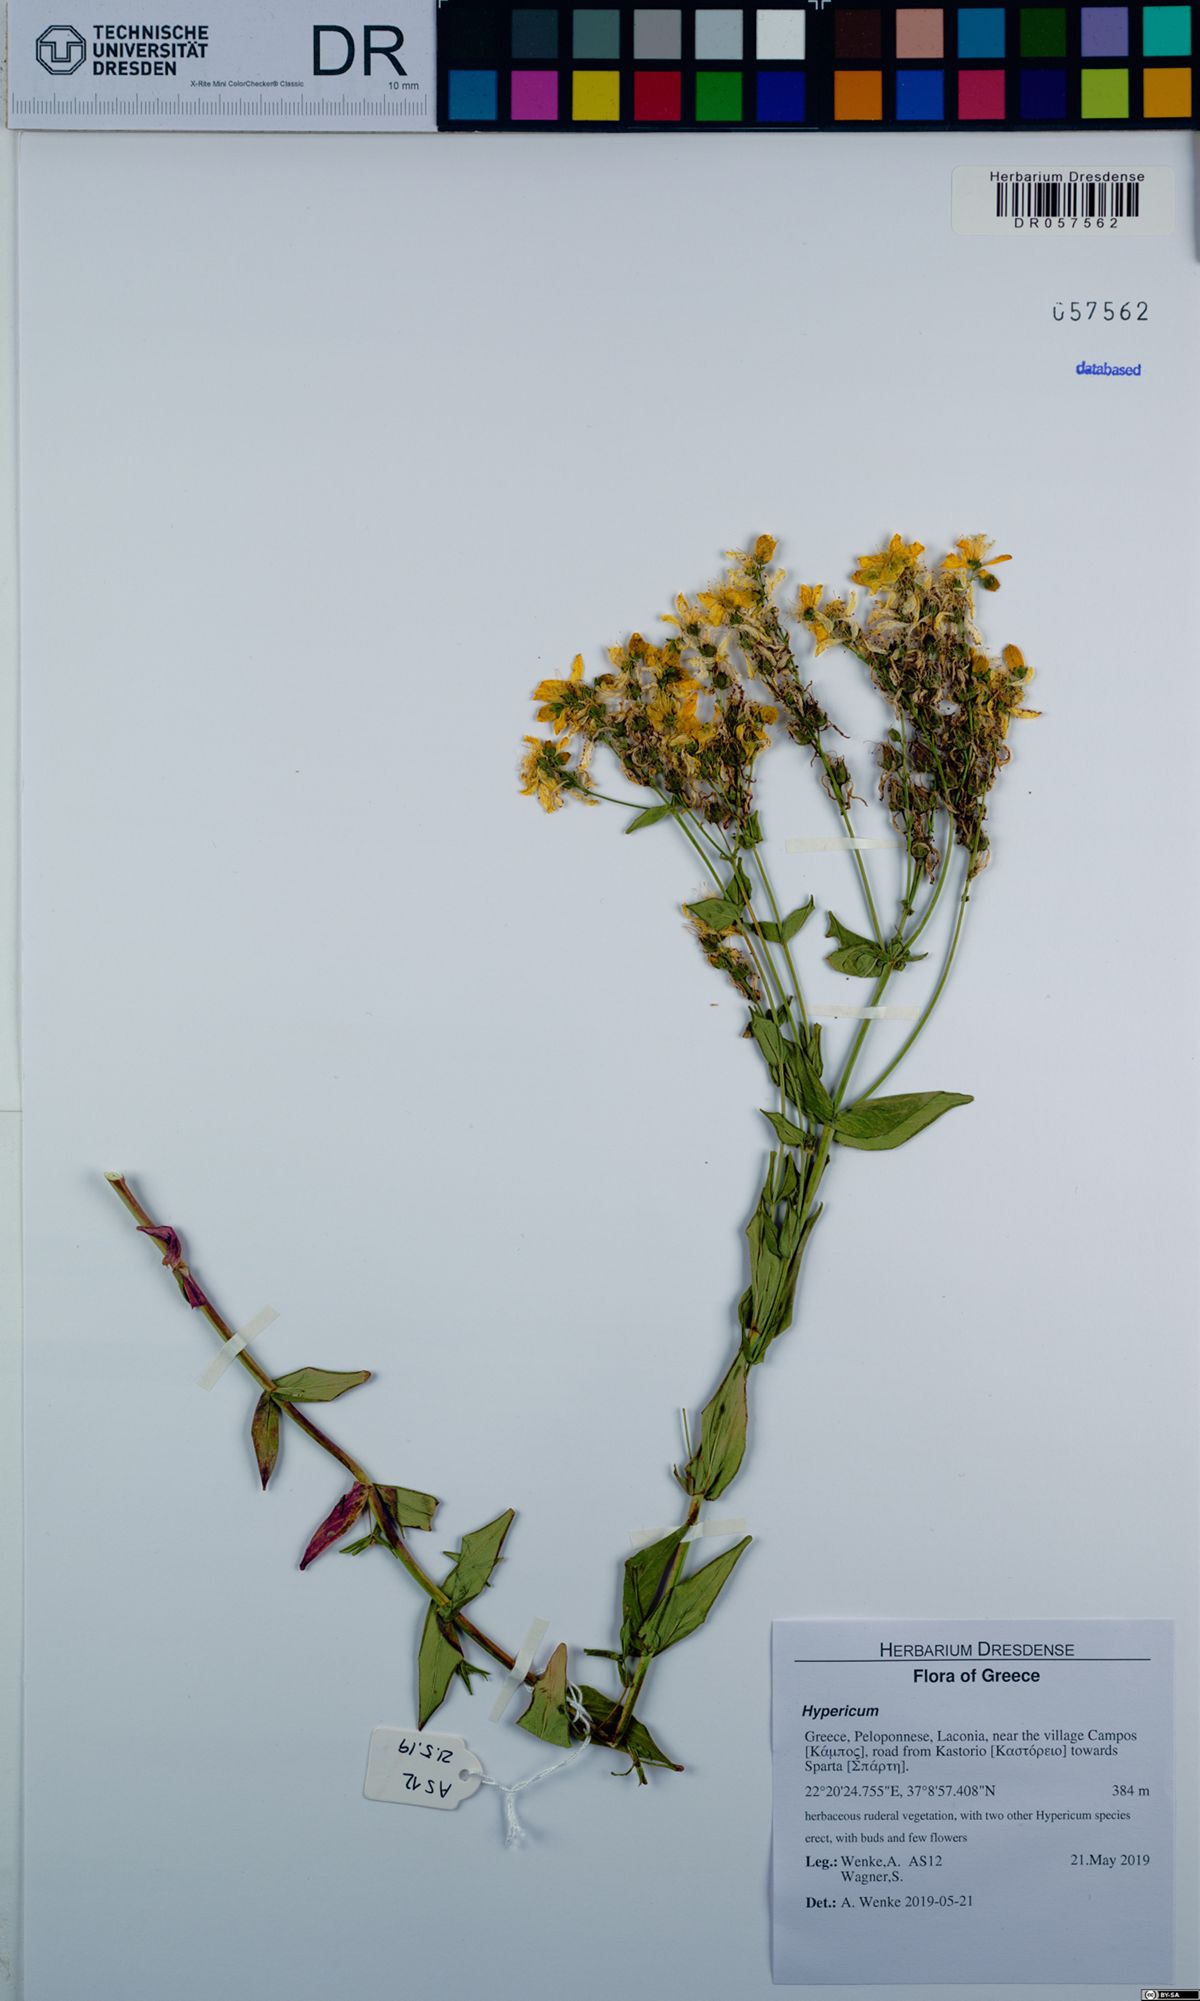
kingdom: Plantae
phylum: Tracheophyta
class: Magnoliopsida
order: Malpighiales
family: Hypericaceae
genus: Hypericum
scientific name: Hypericum perfoliatum
